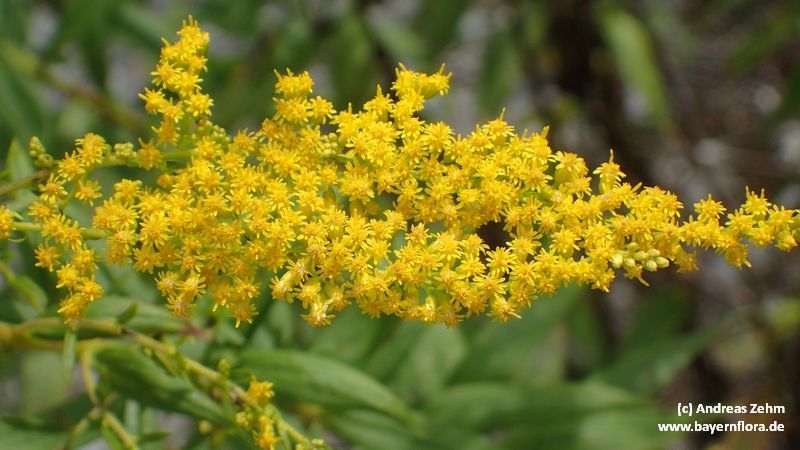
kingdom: Plantae
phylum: Tracheophyta
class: Magnoliopsida
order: Asterales
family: Asteraceae
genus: Solidago
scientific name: Solidago canadensis
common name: Canada goldenrod
